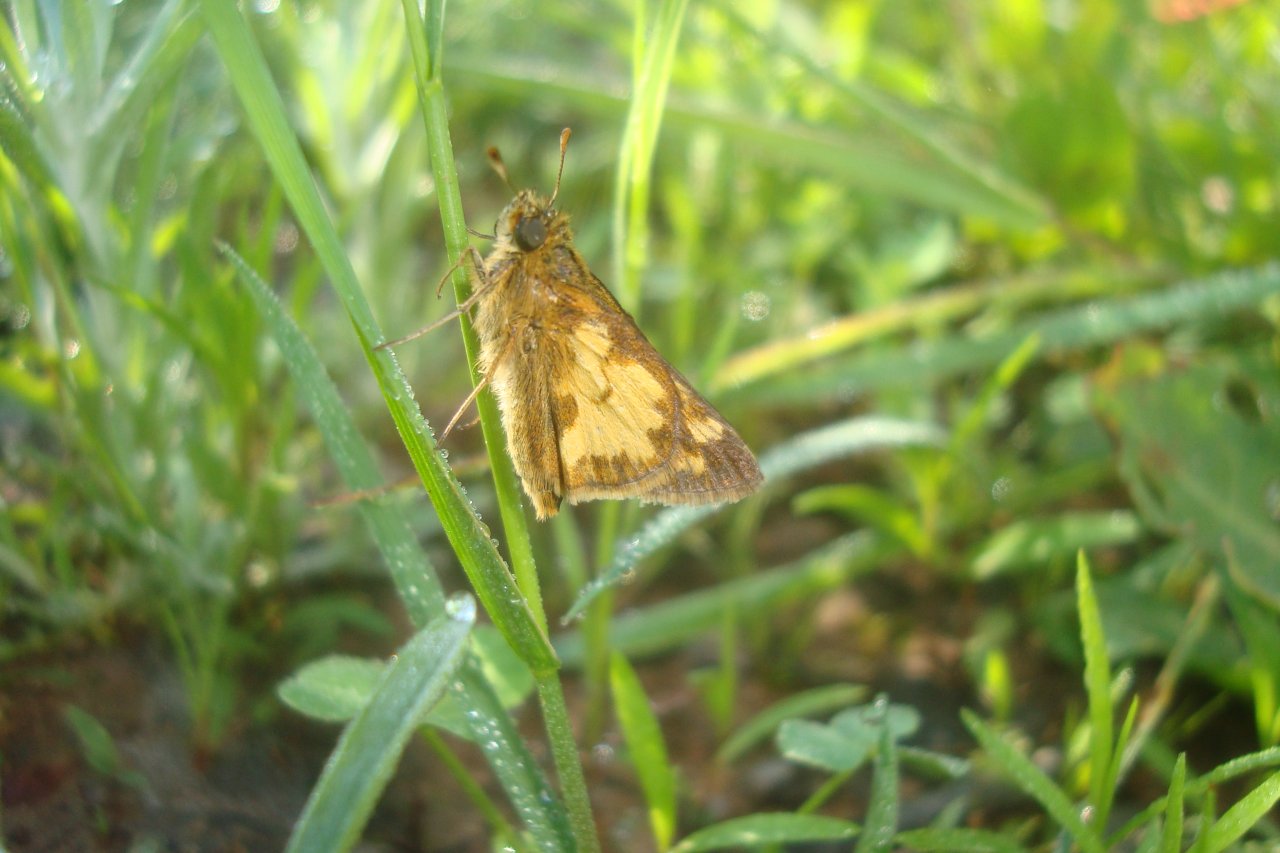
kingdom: Animalia
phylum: Arthropoda
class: Insecta
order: Lepidoptera
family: Hesperiidae
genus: Polites
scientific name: Polites coras
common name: Peck's Skipper
